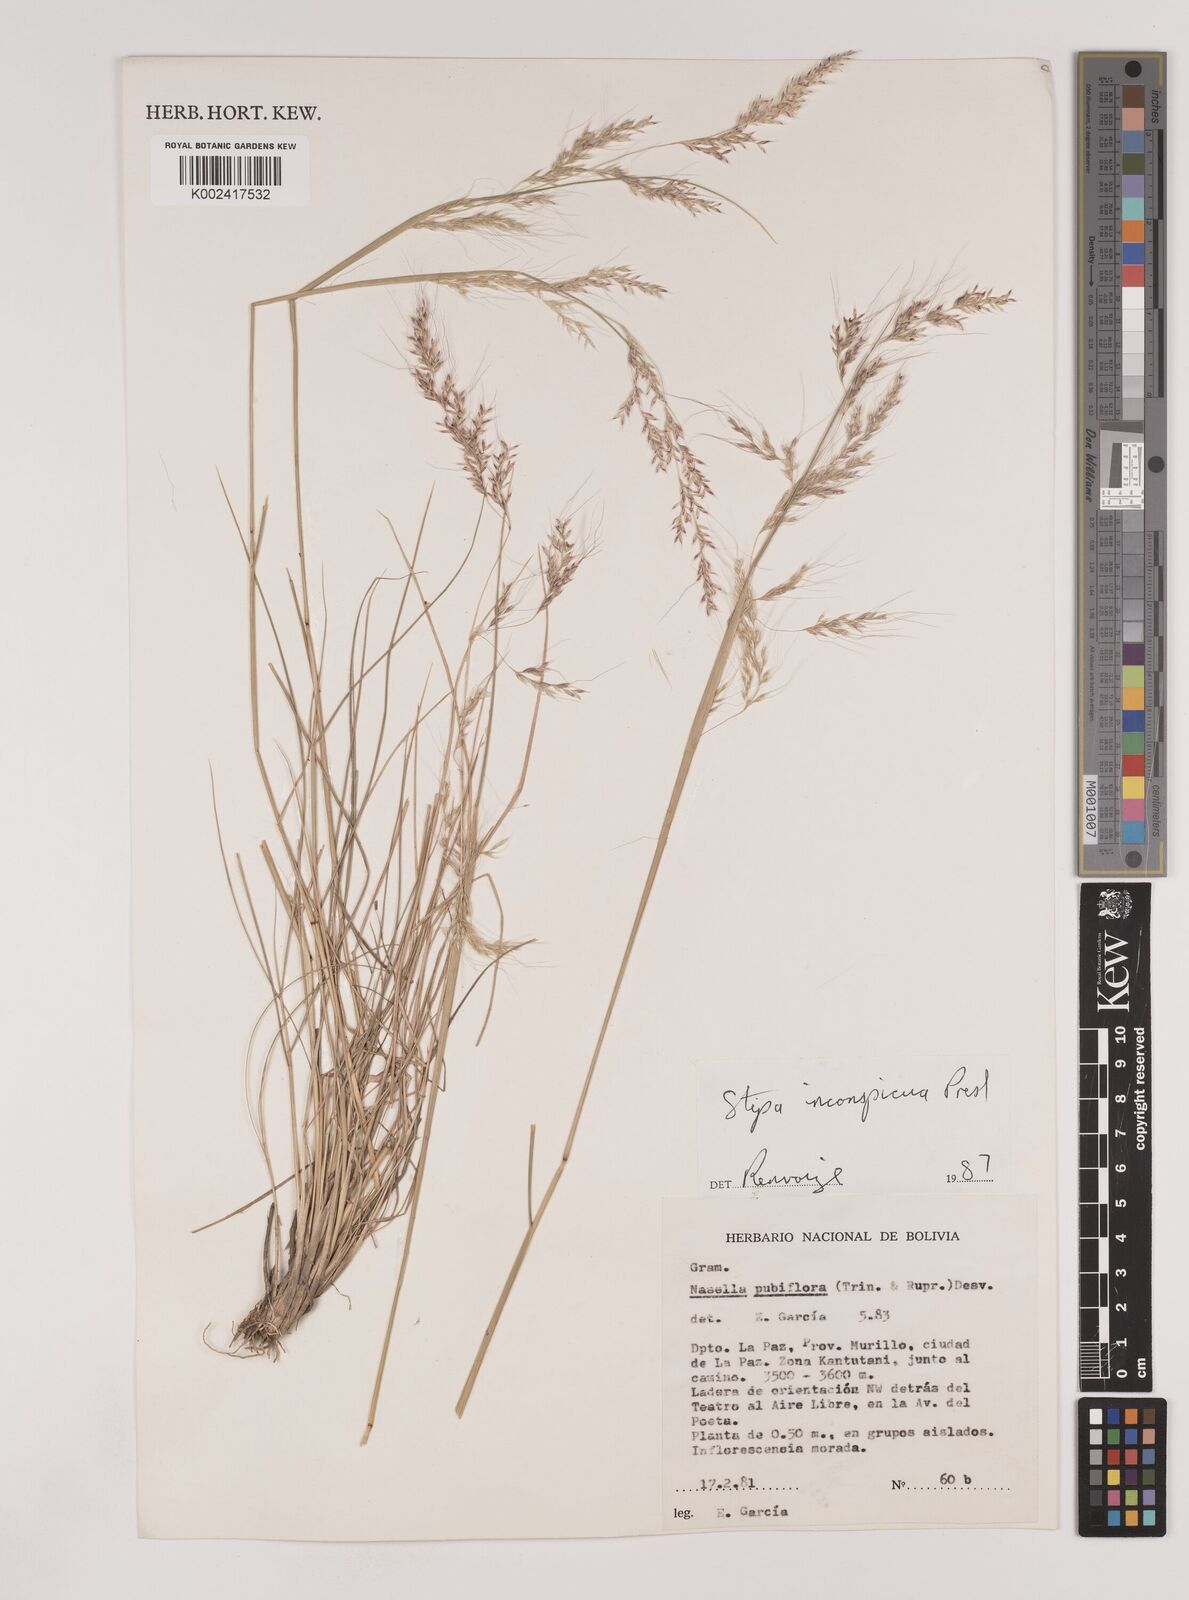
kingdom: Plantae
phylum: Tracheophyta
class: Liliopsida
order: Poales
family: Poaceae
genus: Nassella
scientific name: Nassella pubiflora
